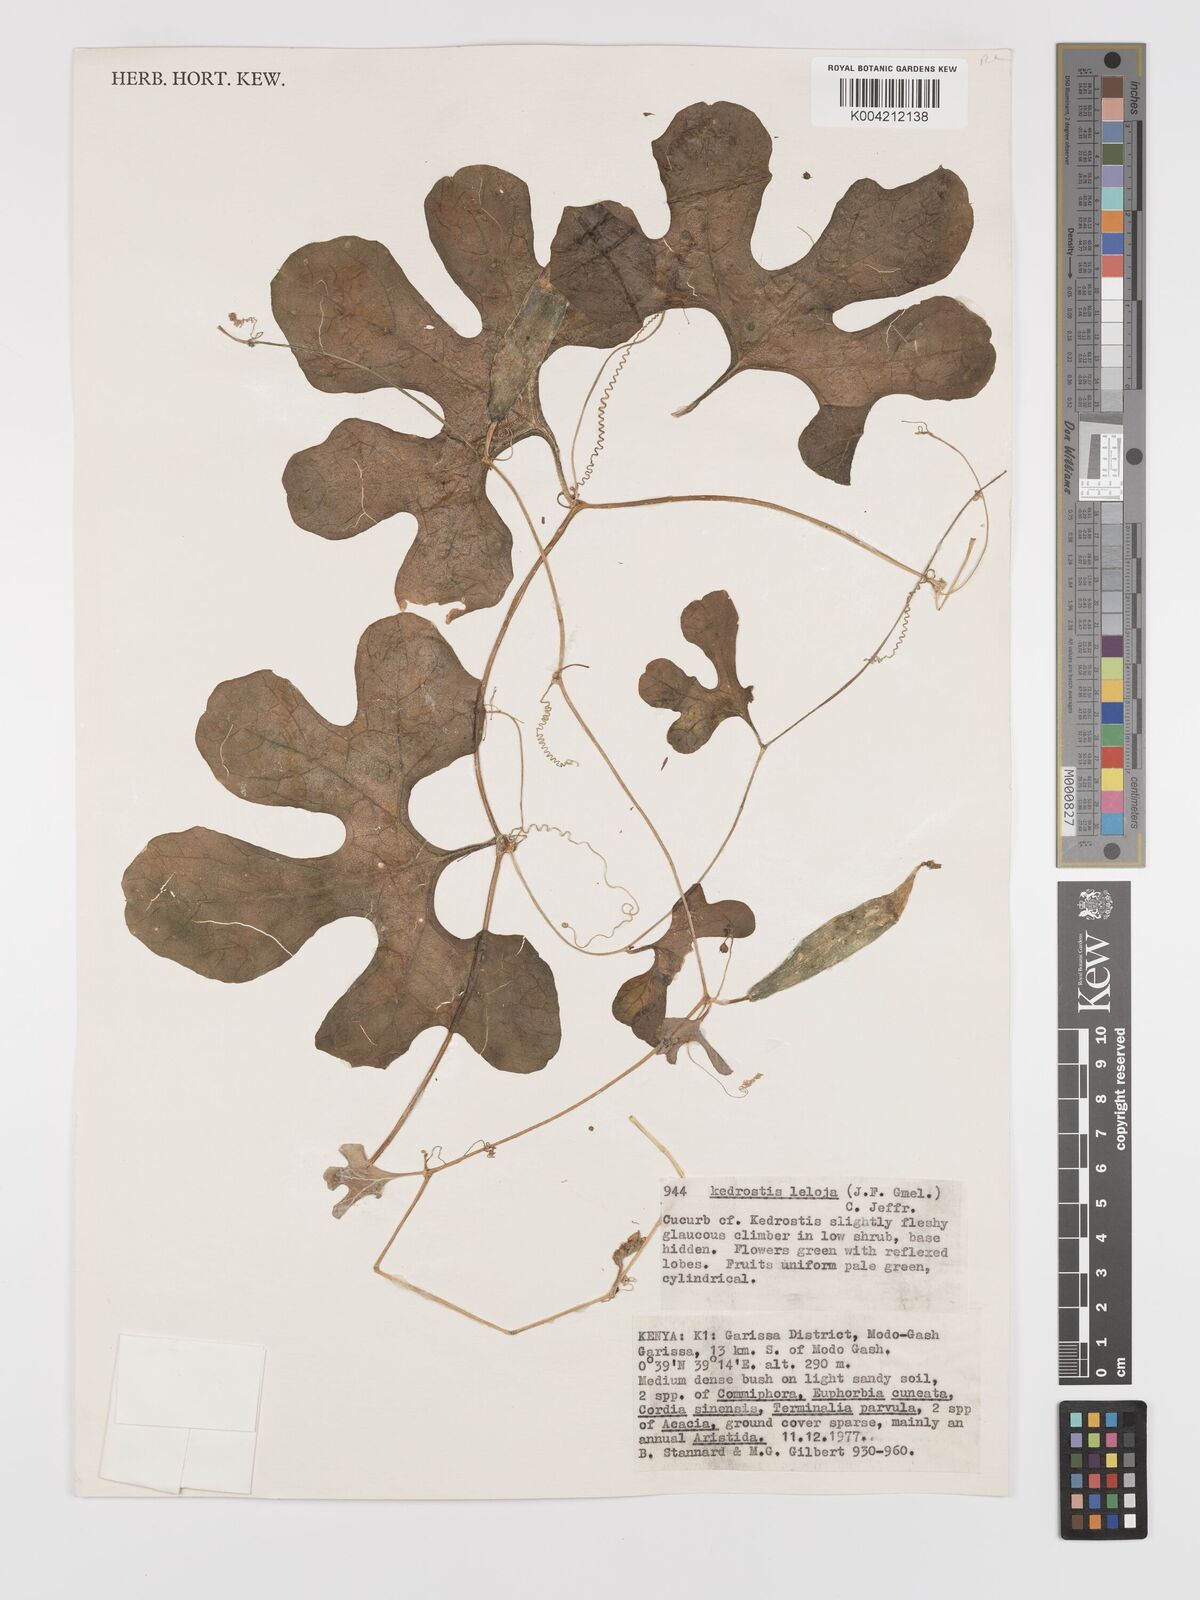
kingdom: Plantae
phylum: Tracheophyta
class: Magnoliopsida
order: Cucurbitales
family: Cucurbitaceae
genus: Kedrostis
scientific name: Kedrostis leloja
